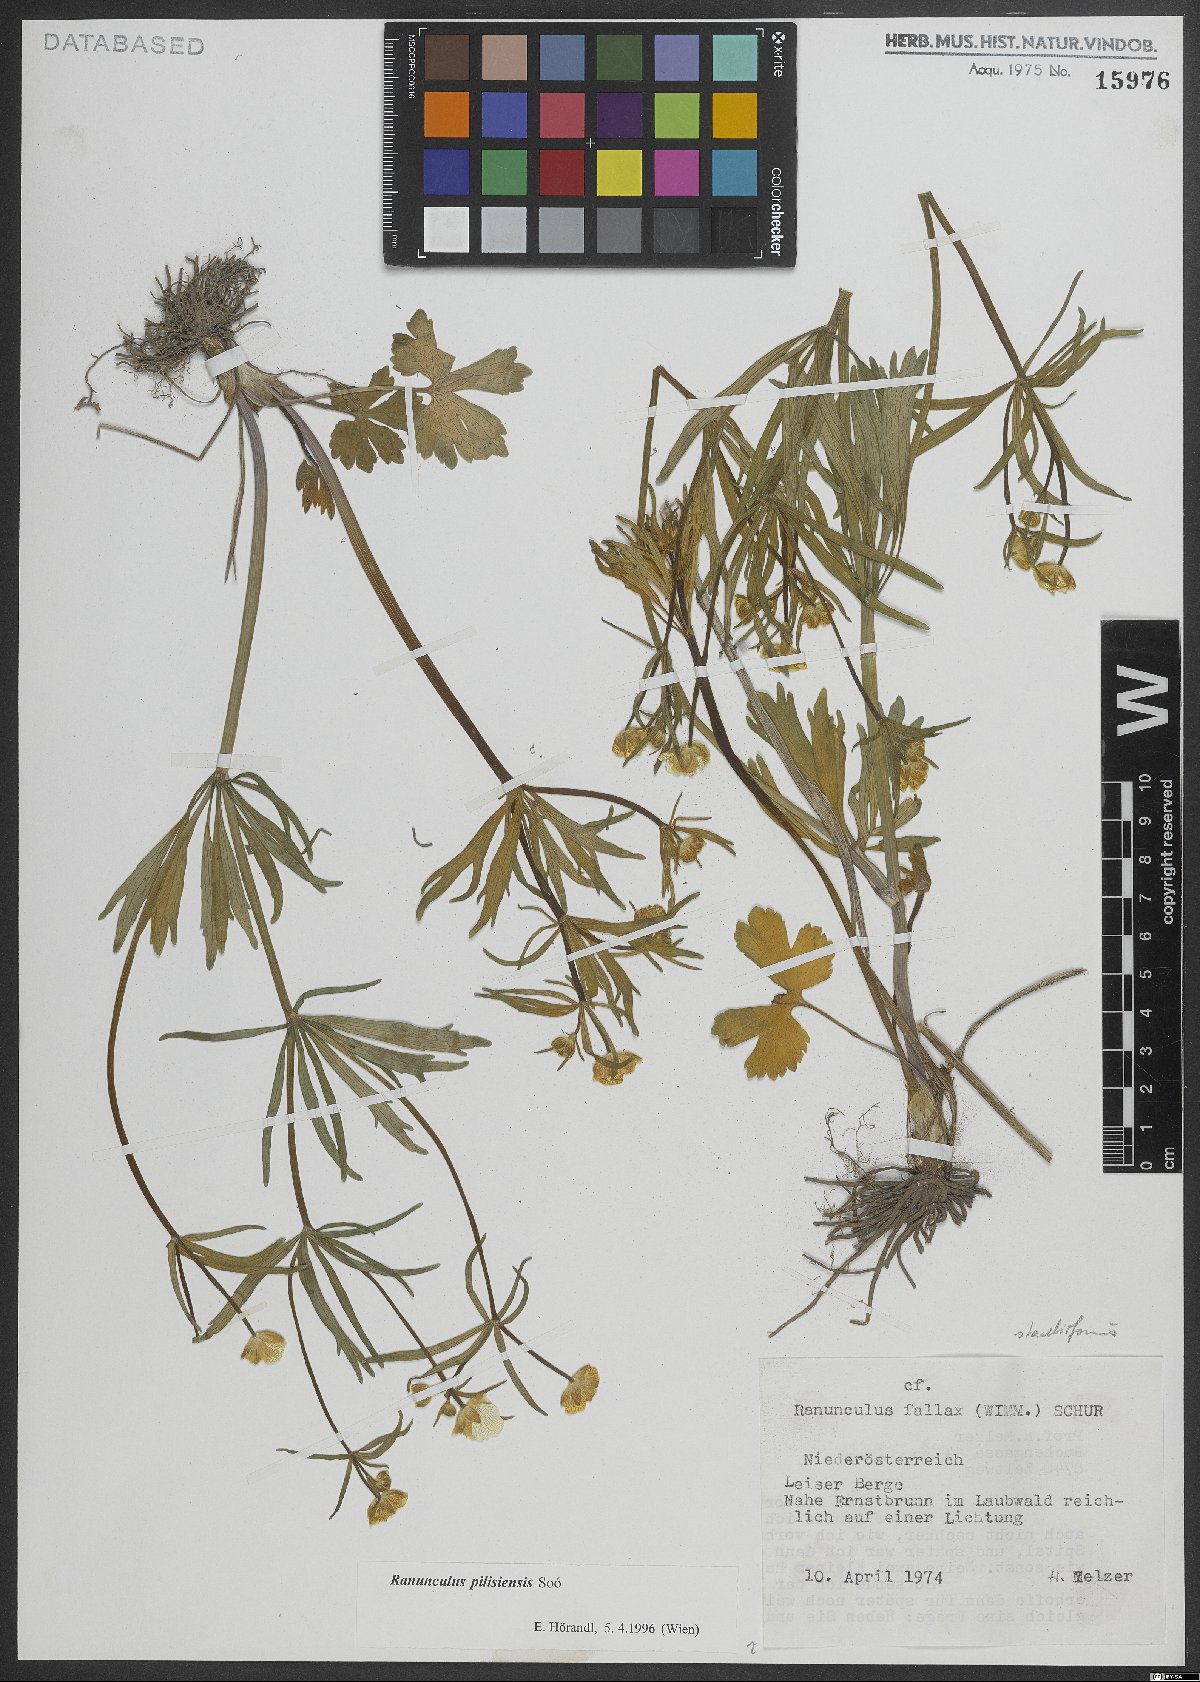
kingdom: Plantae
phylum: Tracheophyta
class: Magnoliopsida
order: Ranunculales
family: Ranunculaceae
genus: Ranunculus
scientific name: Ranunculus pilisiensis
